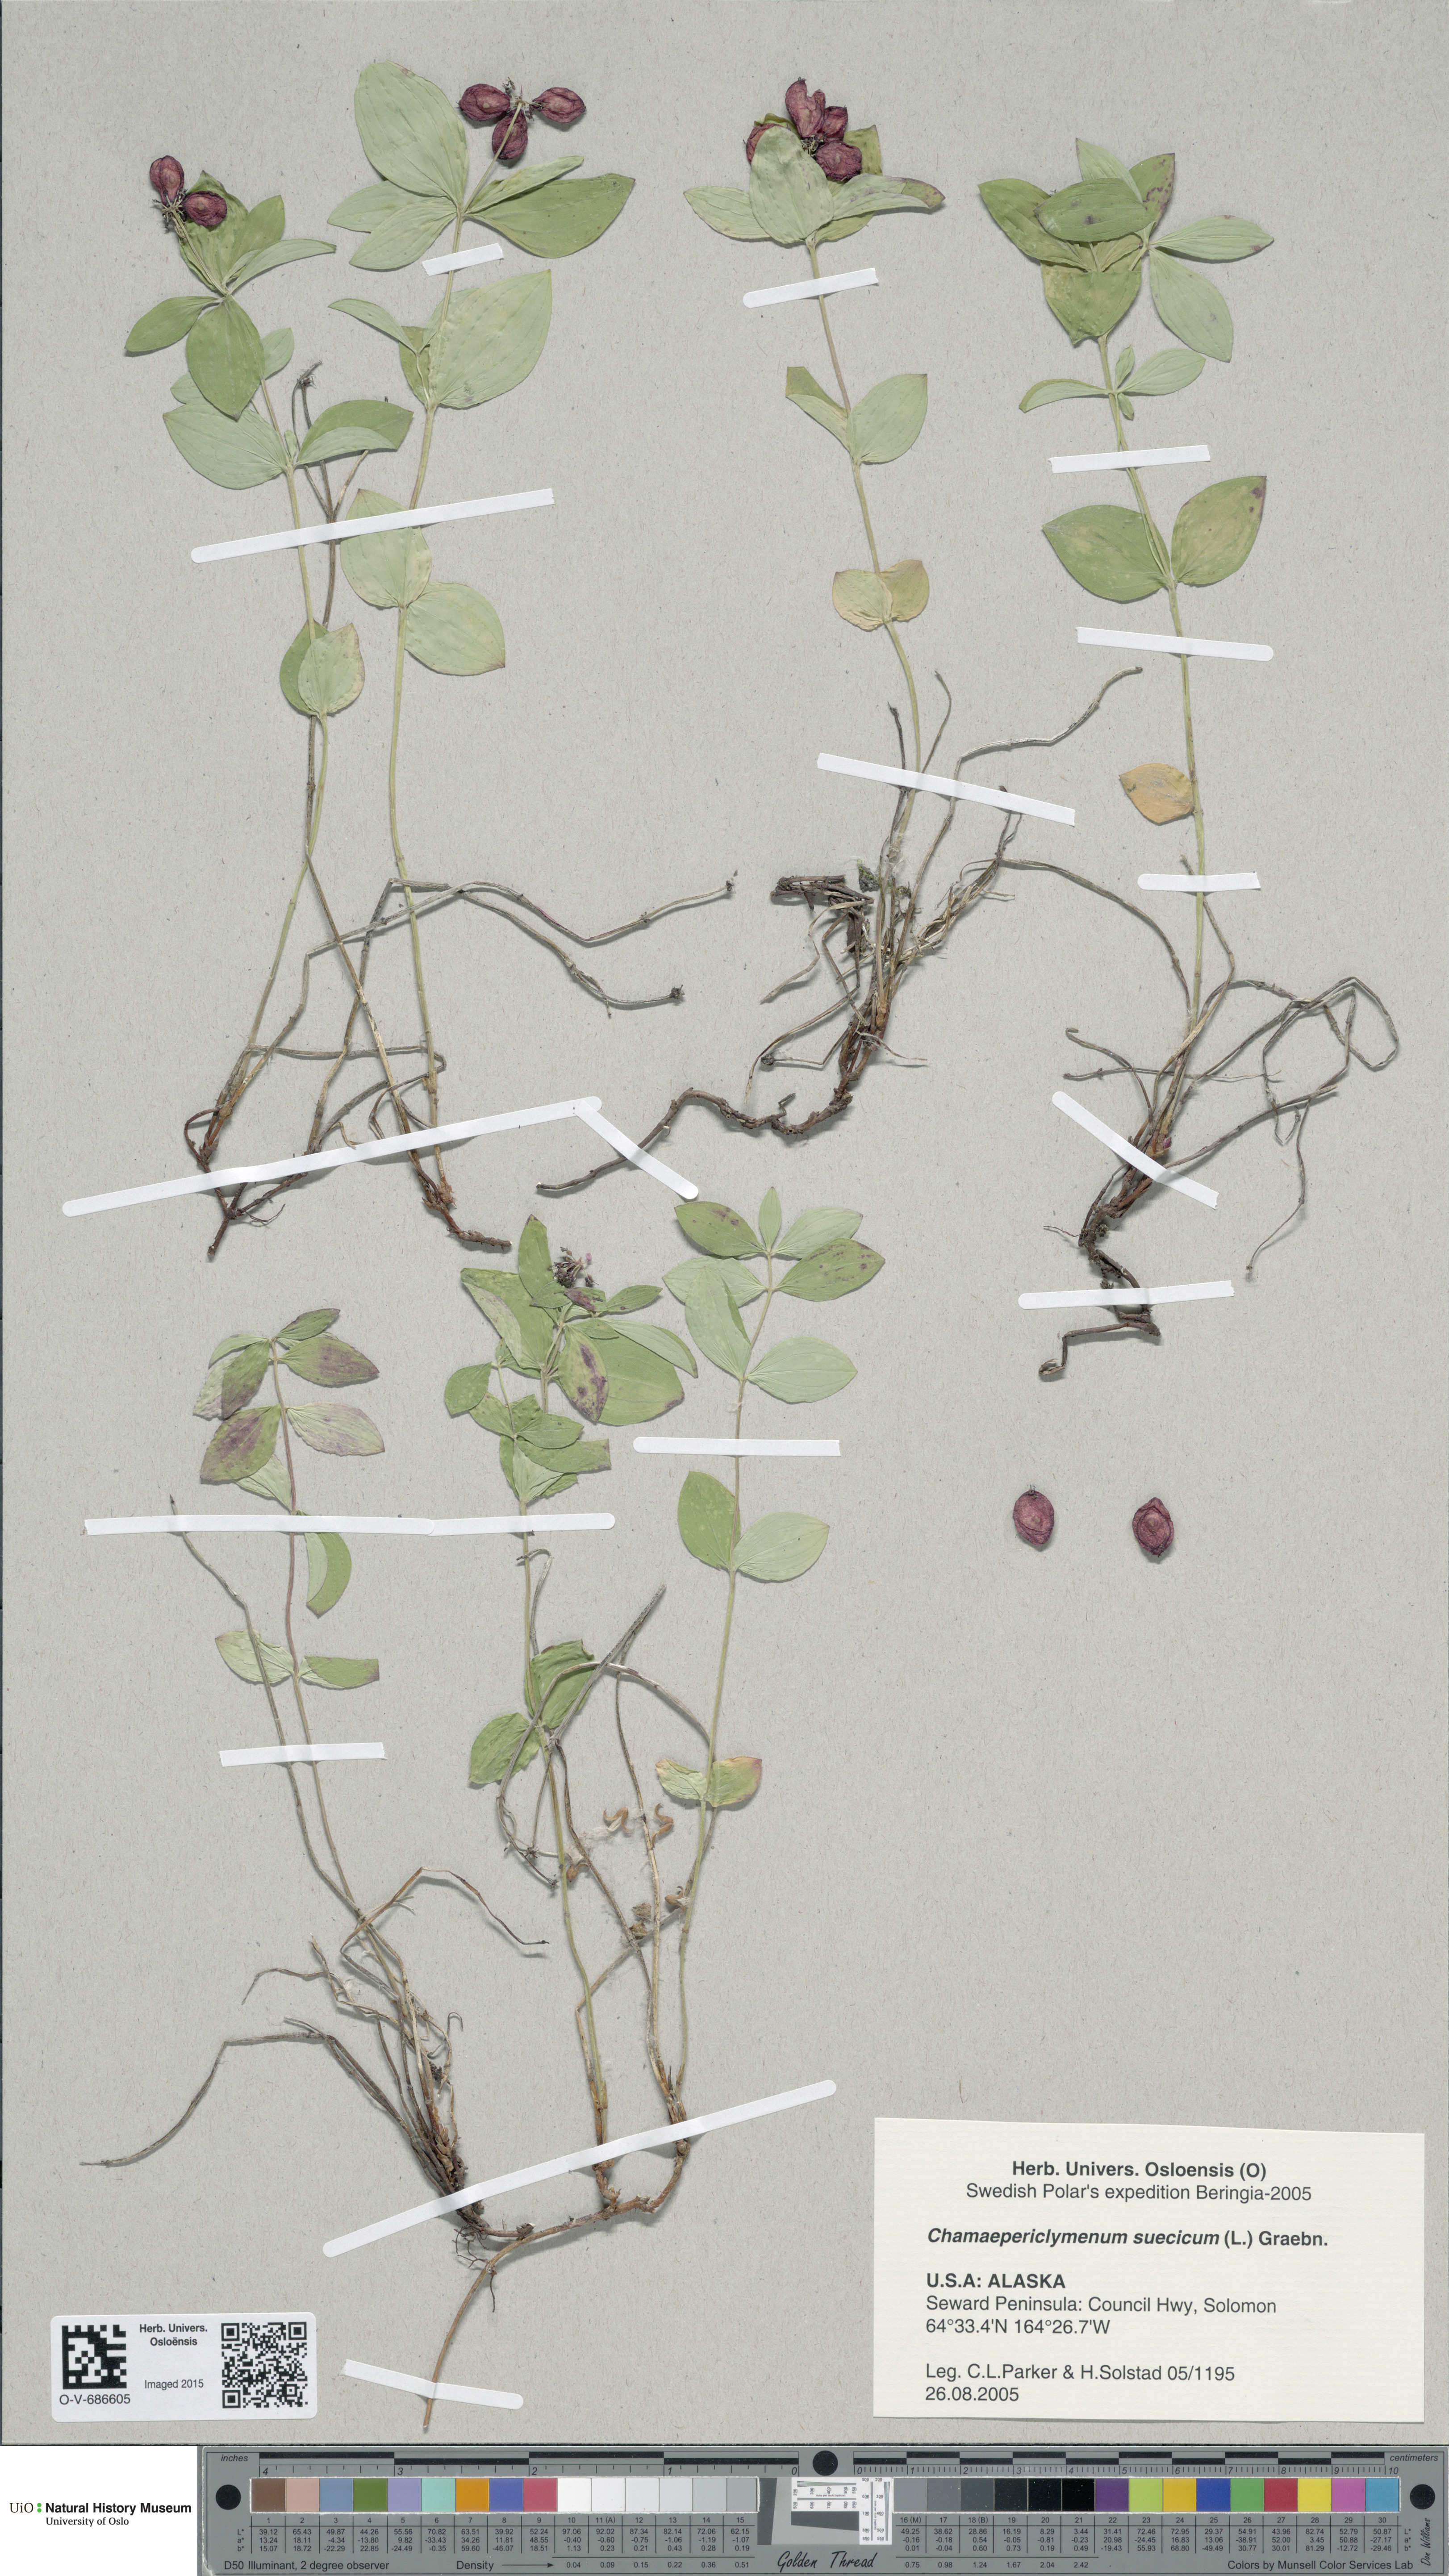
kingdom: Plantae
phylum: Tracheophyta
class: Magnoliopsida
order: Cornales
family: Cornaceae
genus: Cornus
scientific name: Cornus suecica
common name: Dwarf cornel
